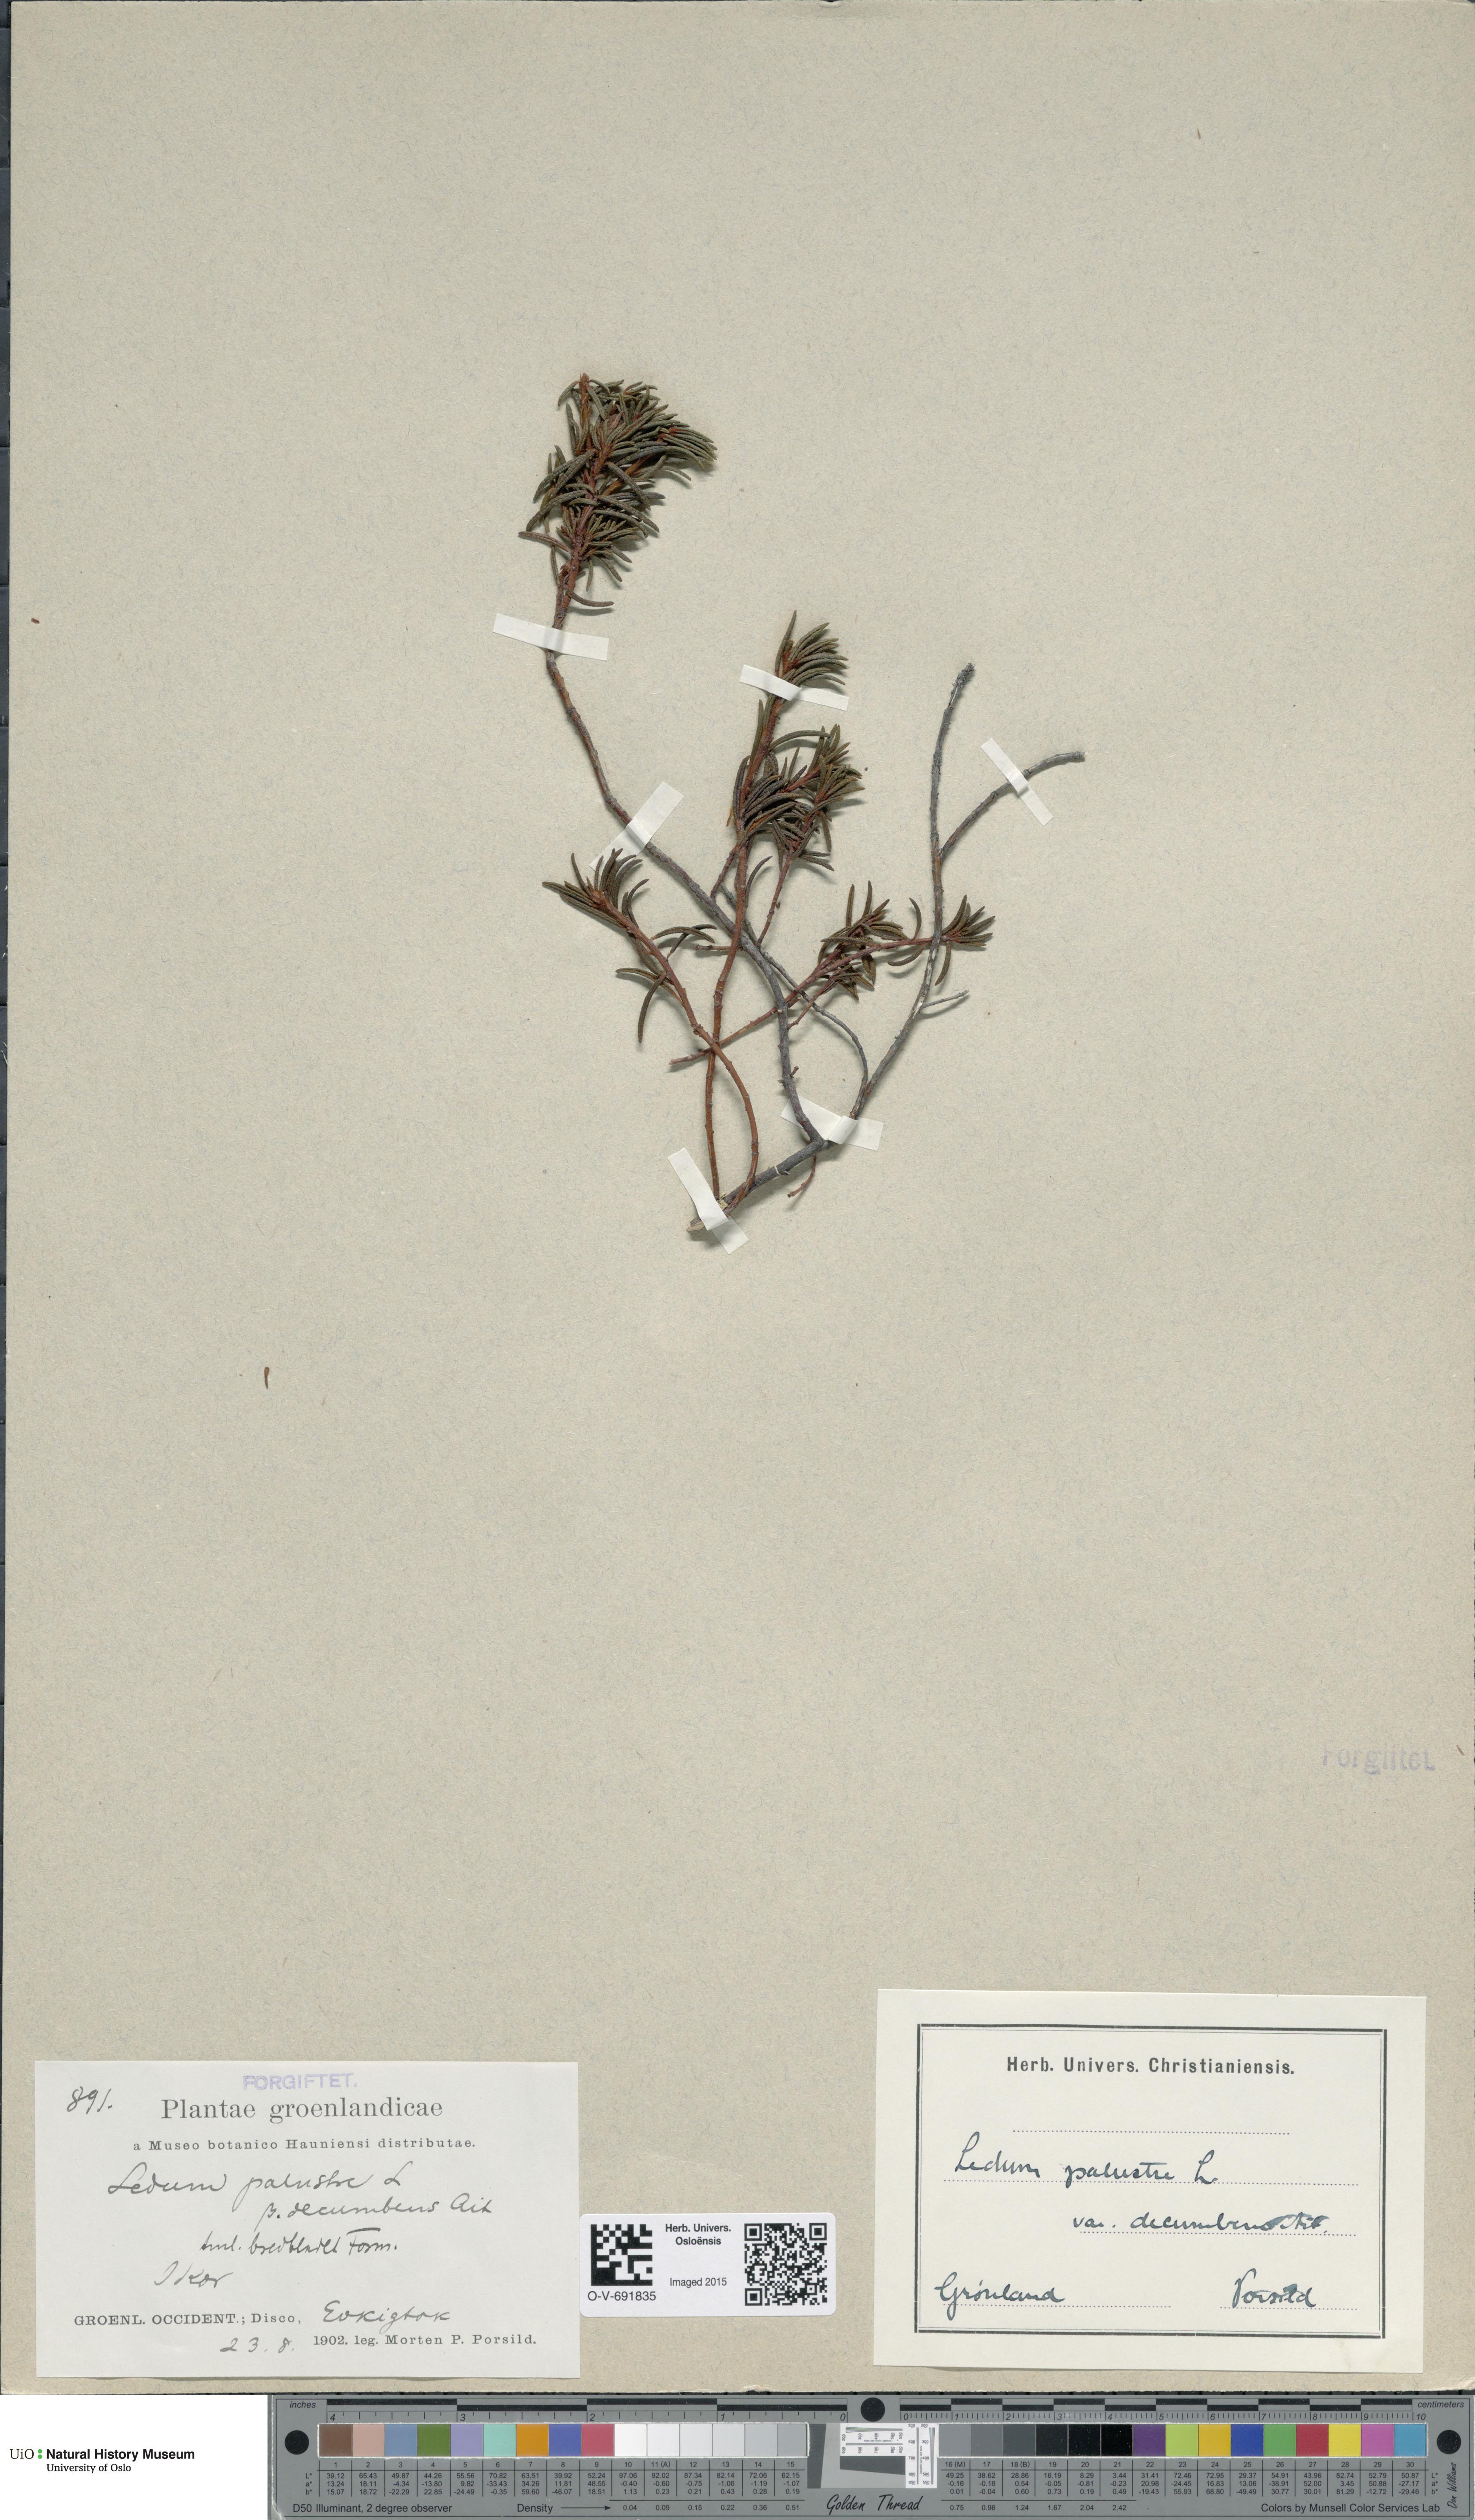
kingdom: Plantae
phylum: Tracheophyta
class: Magnoliopsida
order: Ericales
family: Ericaceae
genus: Rhododendron
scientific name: Rhododendron tomentosum
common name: Marsh labrador tea
